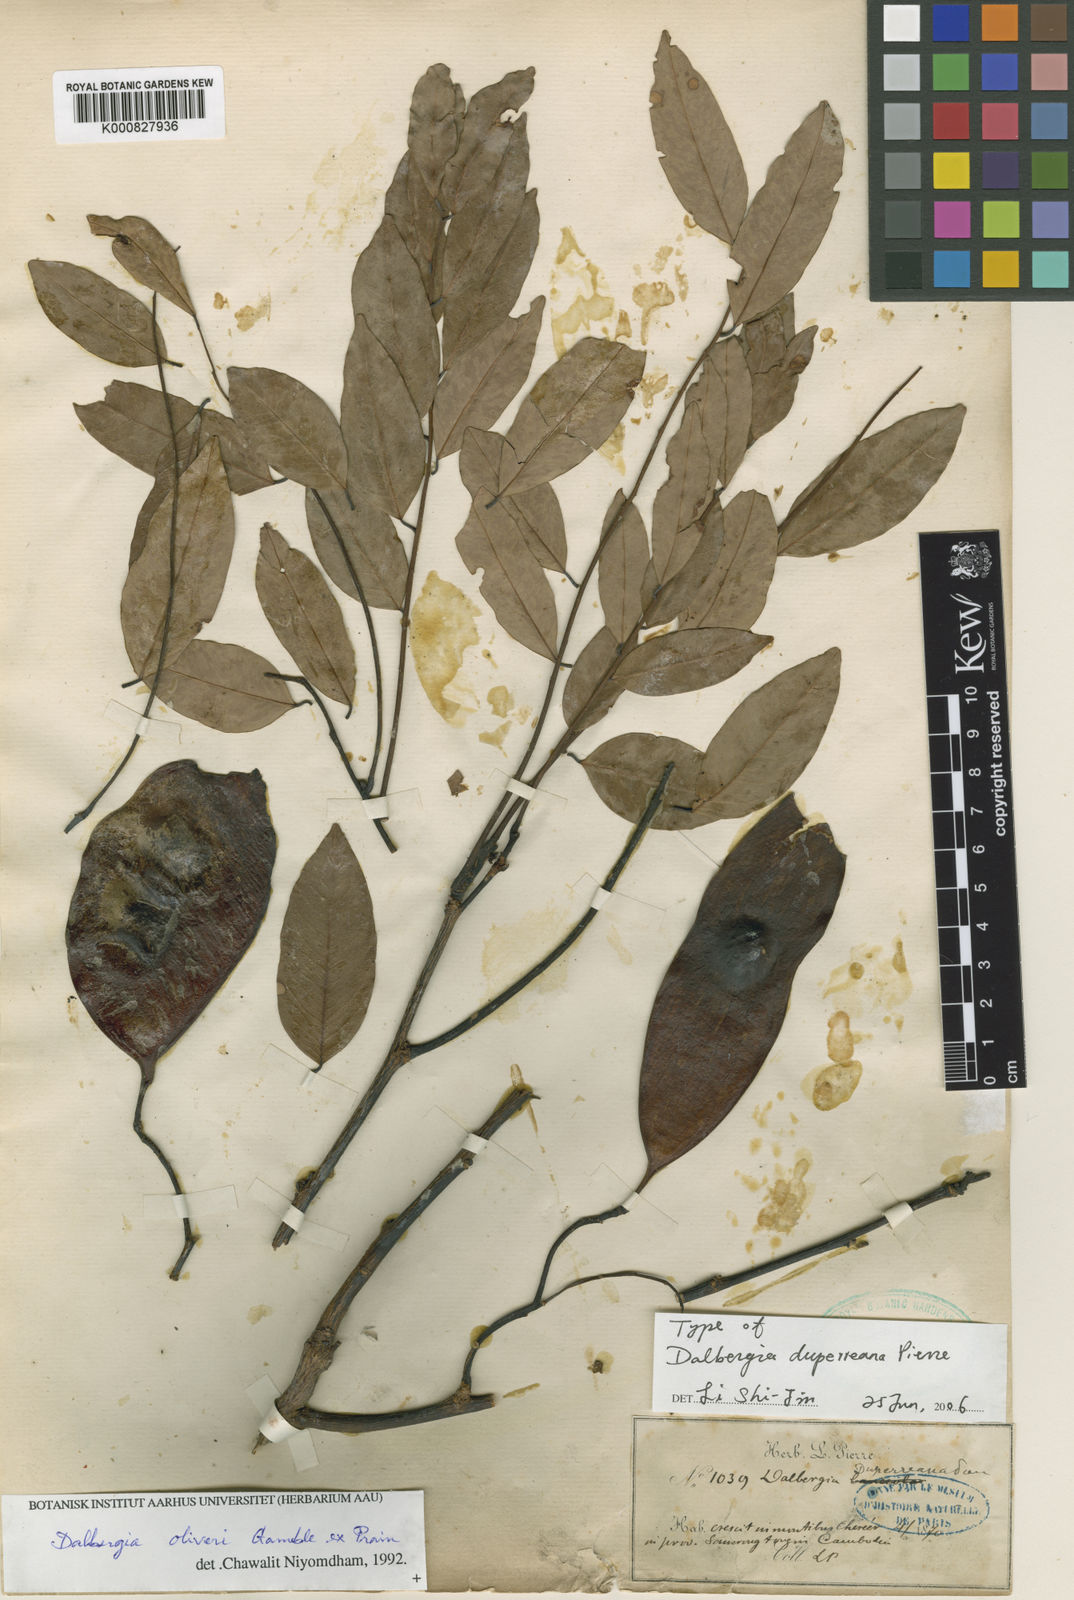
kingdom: Plantae
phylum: Tracheophyta
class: Magnoliopsida
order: Fabales
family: Fabaceae
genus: Dalbergia
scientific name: Dalbergia oliveri
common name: Burmese rosewood
